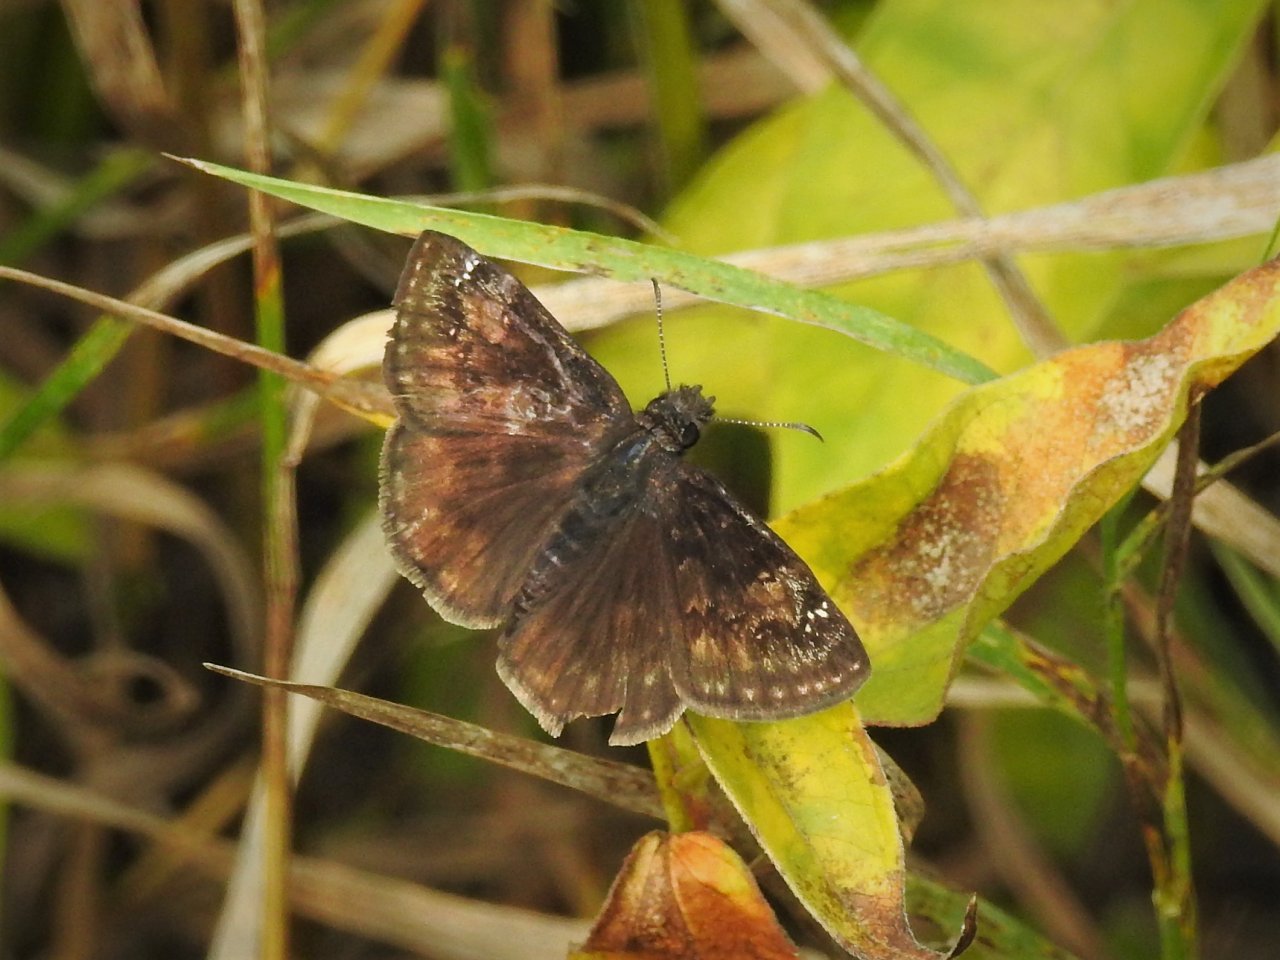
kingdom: Animalia
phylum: Arthropoda
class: Insecta
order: Lepidoptera
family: Hesperiidae
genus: Gesta
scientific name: Gesta
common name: Wild Indigo Duskywing
